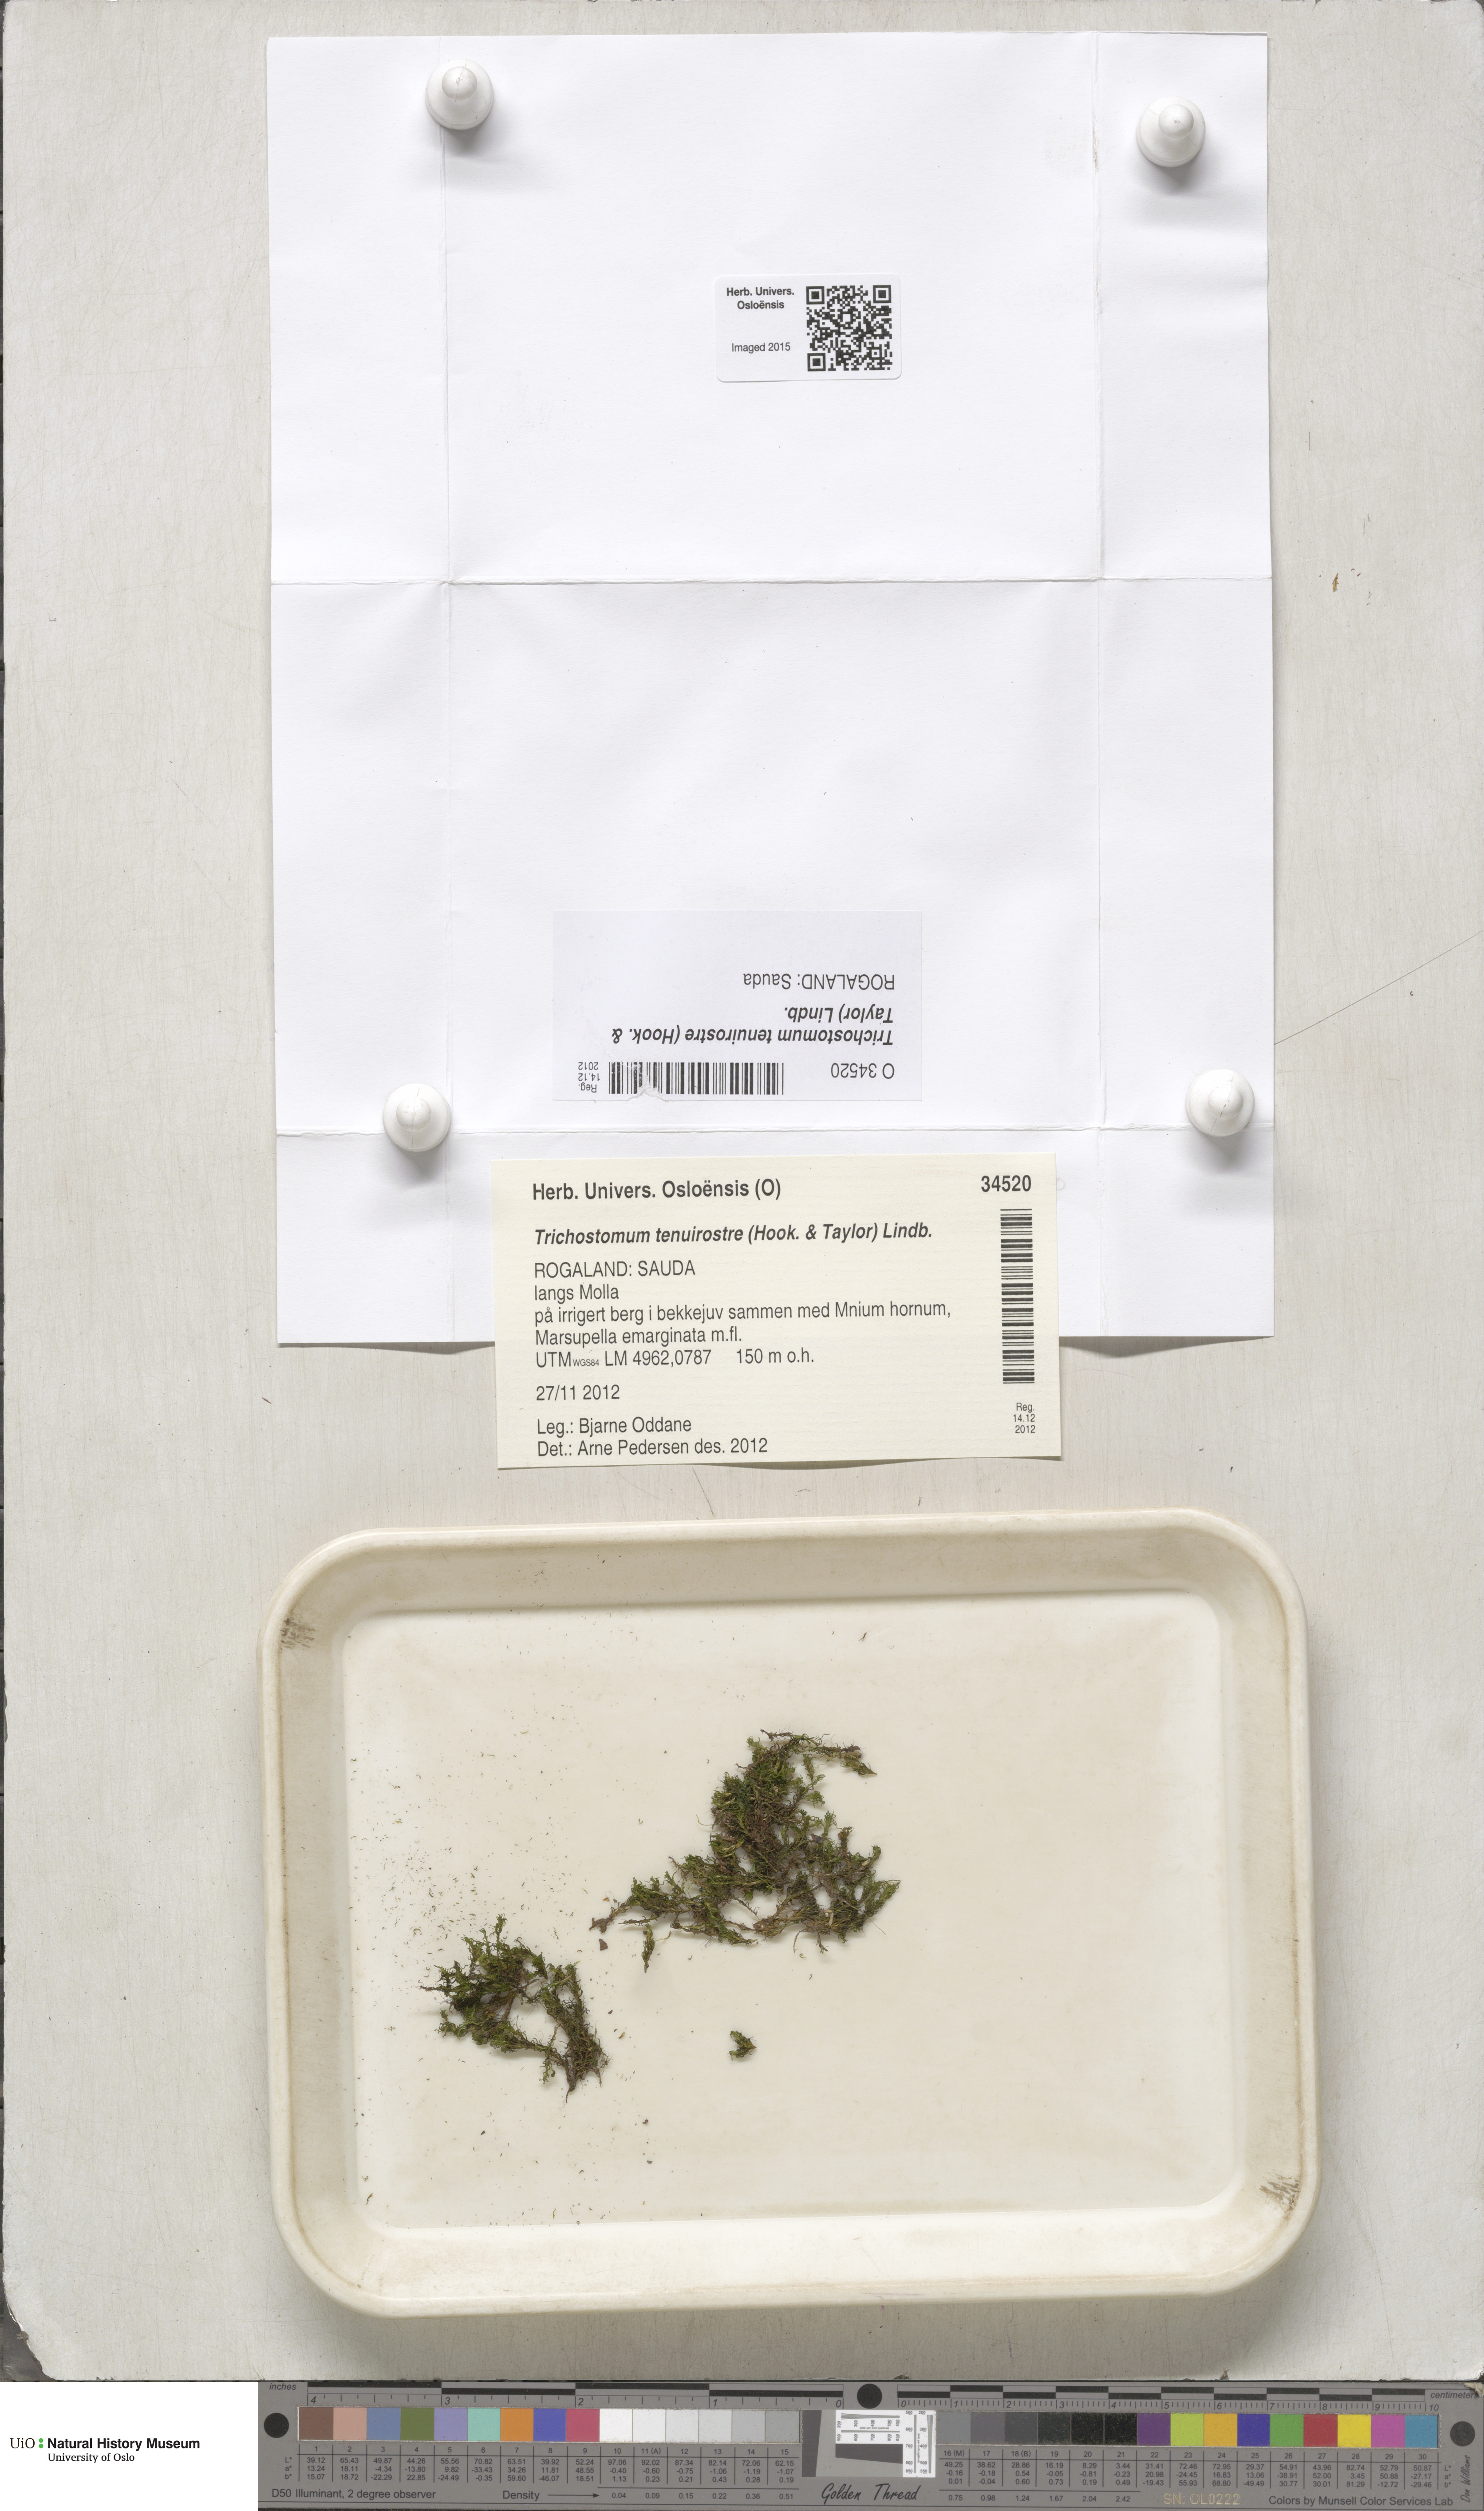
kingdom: Plantae
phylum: Bryophyta
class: Bryopsida
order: Pottiales
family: Pottiaceae
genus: Chionoloma
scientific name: Chionoloma tenuirostre
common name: Narrow-fruited crisp-moss
